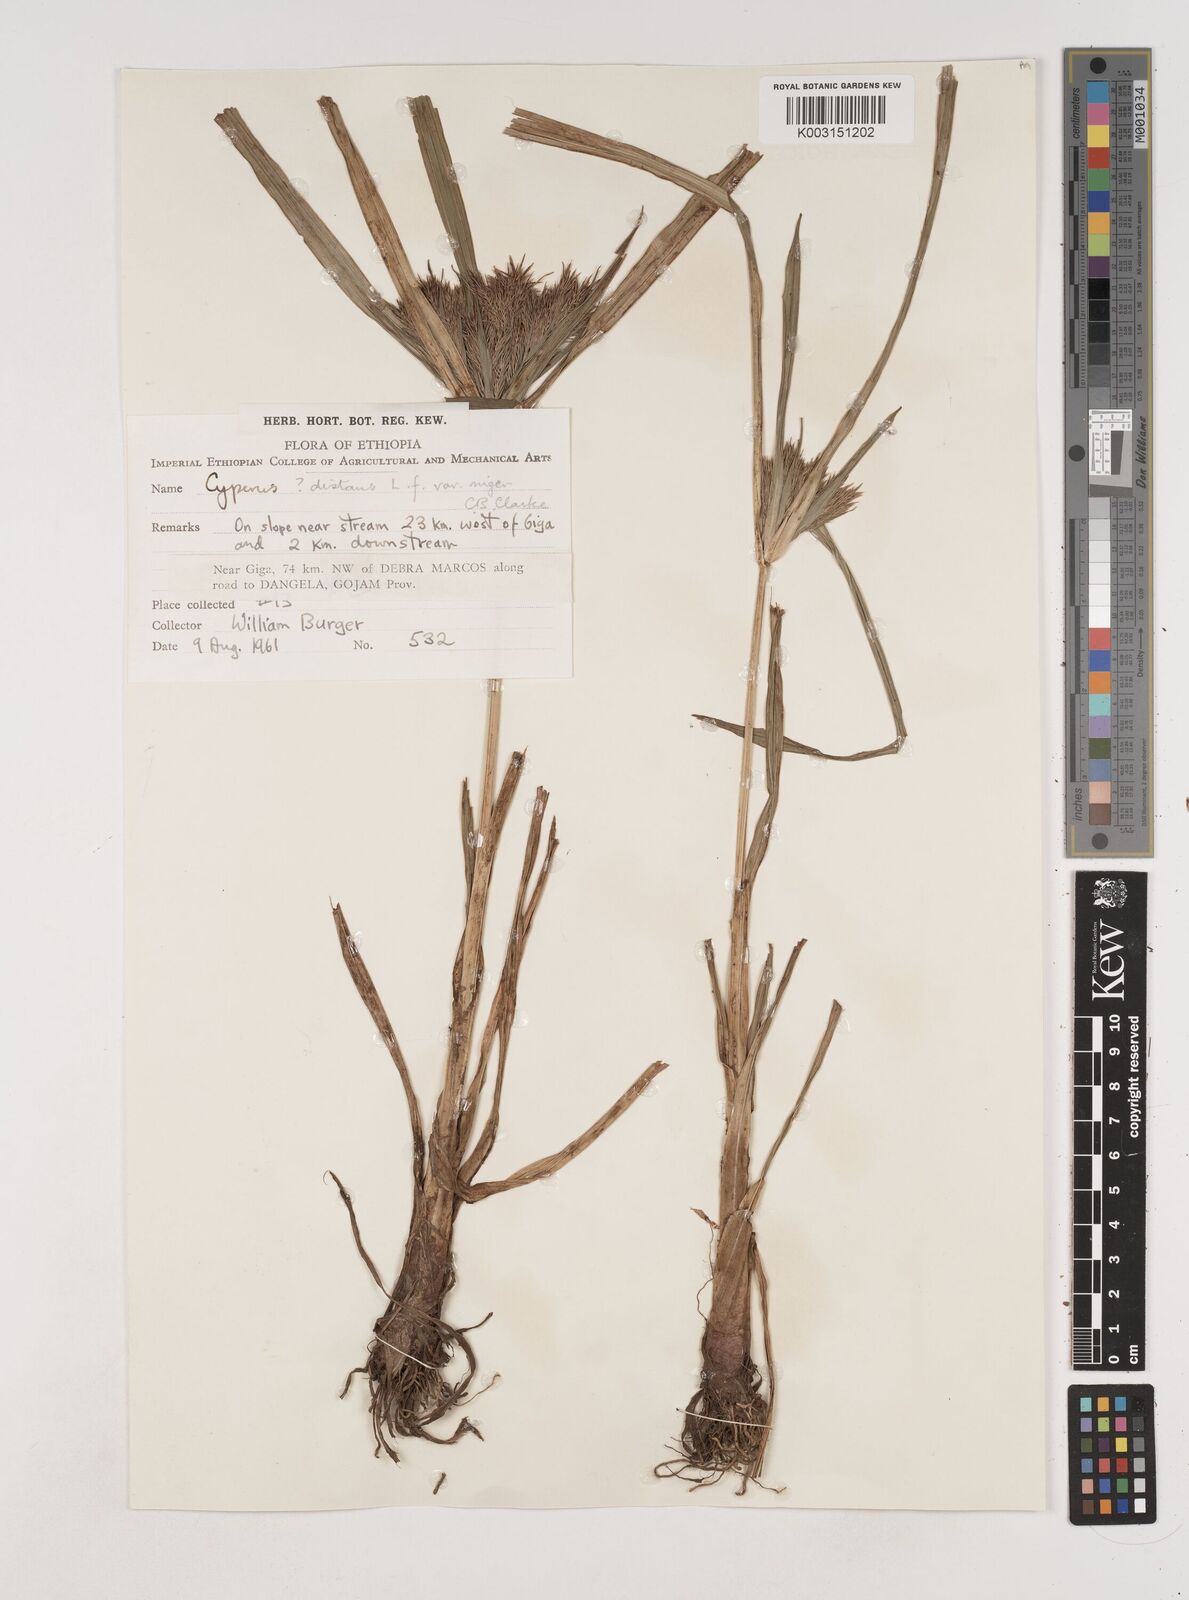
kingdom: Plantae
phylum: Tracheophyta
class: Liliopsida
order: Poales
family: Cyperaceae
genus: Cyperus
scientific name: Cyperus distans
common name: Slender cyperus
